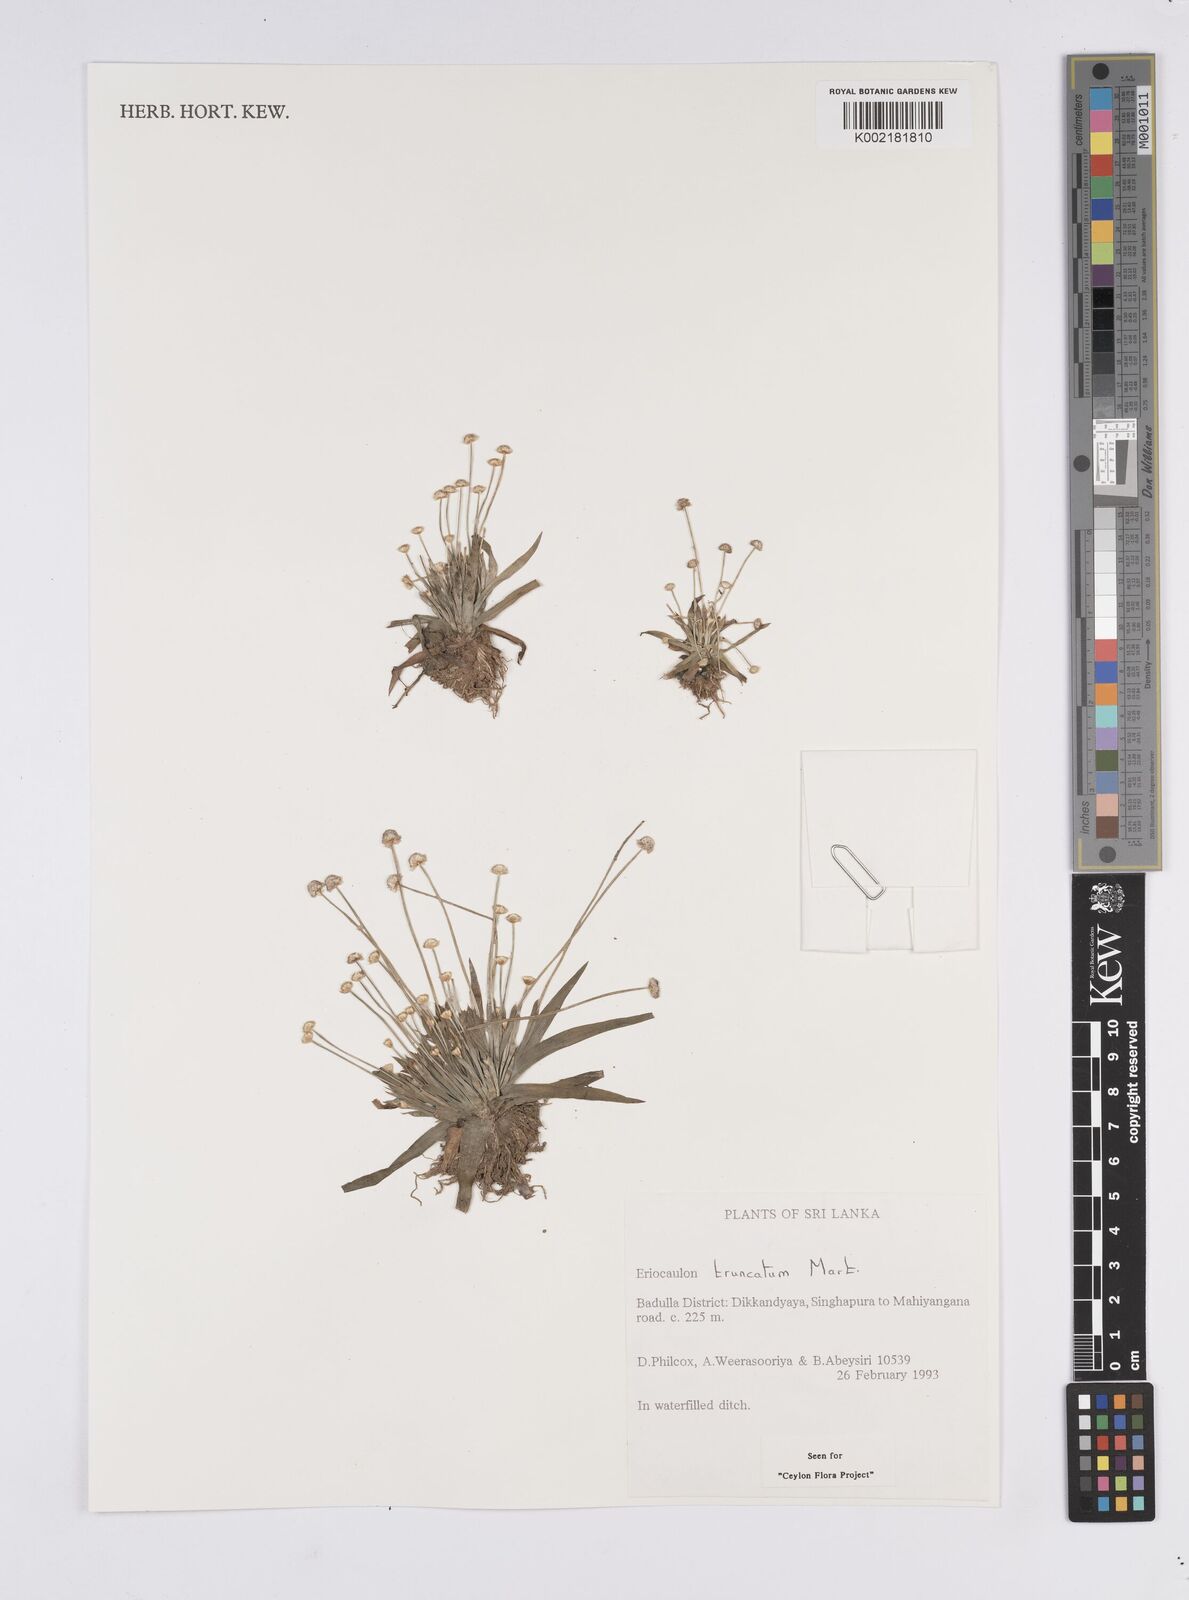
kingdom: Plantae
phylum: Tracheophyta
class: Liliopsida
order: Poales
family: Eriocaulaceae
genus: Eriocaulon
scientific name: Eriocaulon truncatum
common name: Short pipe-wort
